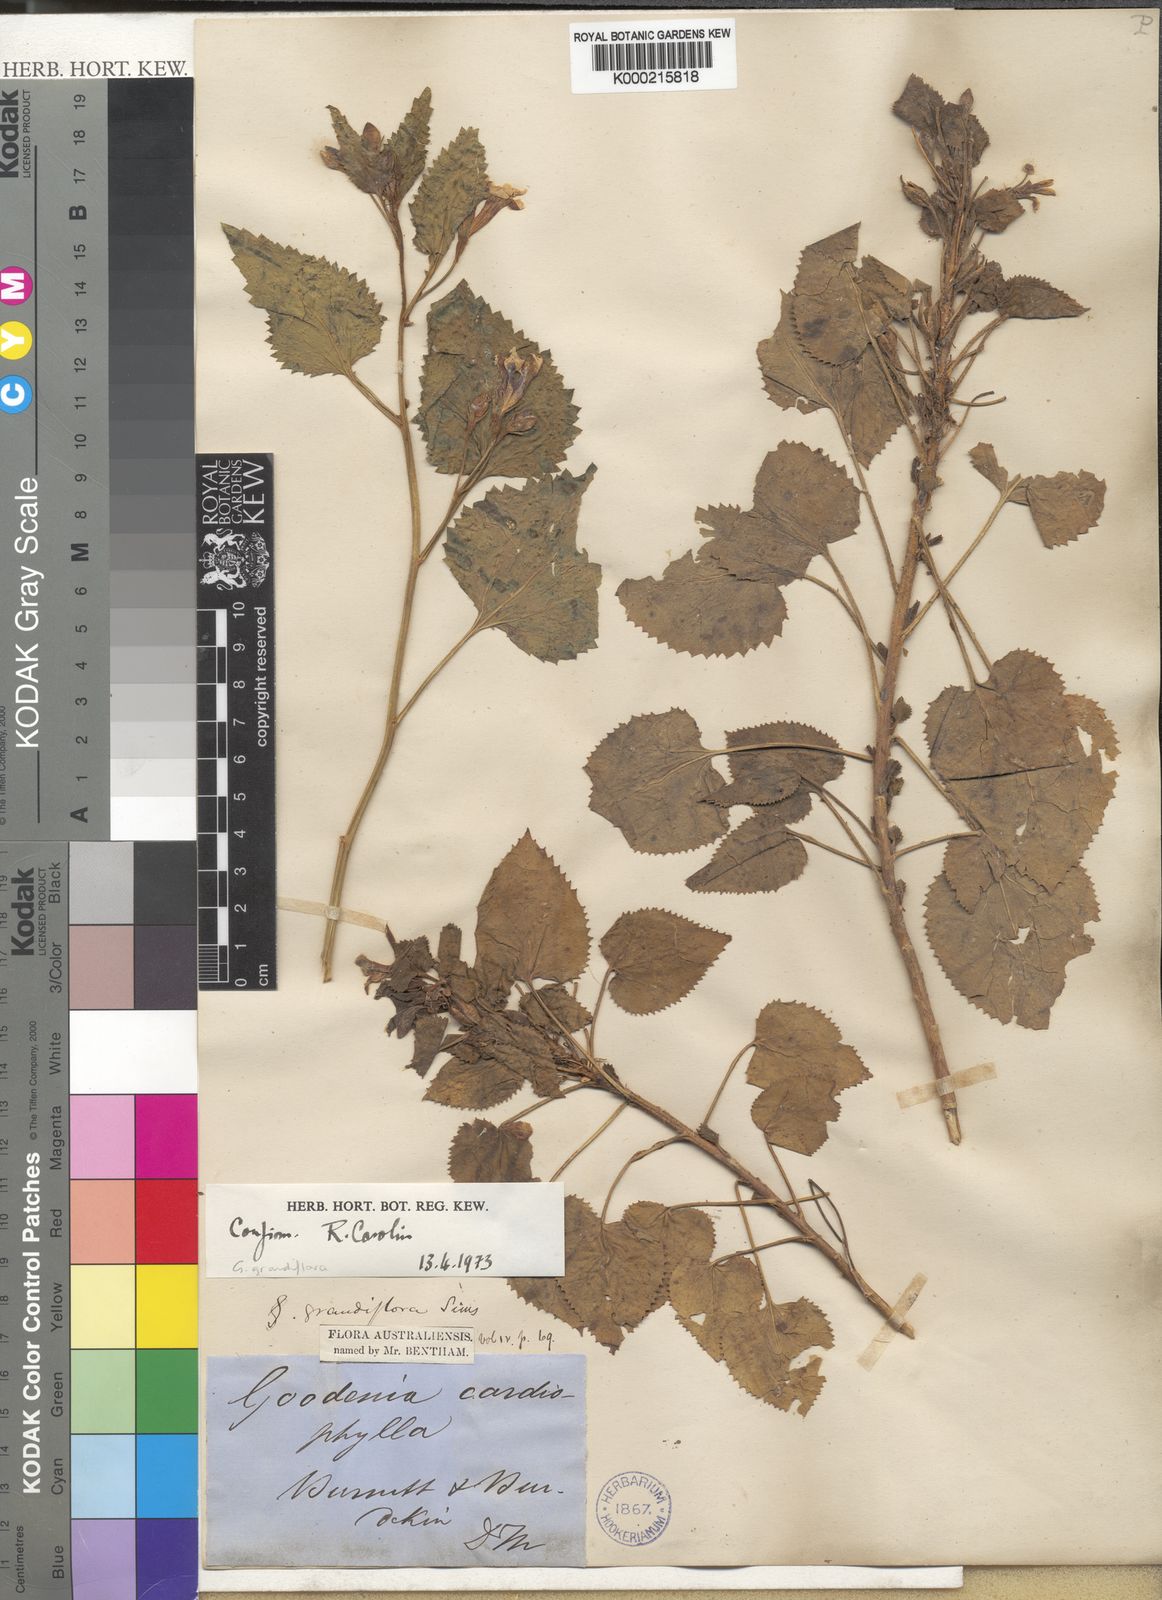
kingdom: Plantae
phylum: Tracheophyta
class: Magnoliopsida
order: Asterales
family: Goodeniaceae
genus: Goodenia
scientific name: Goodenia
